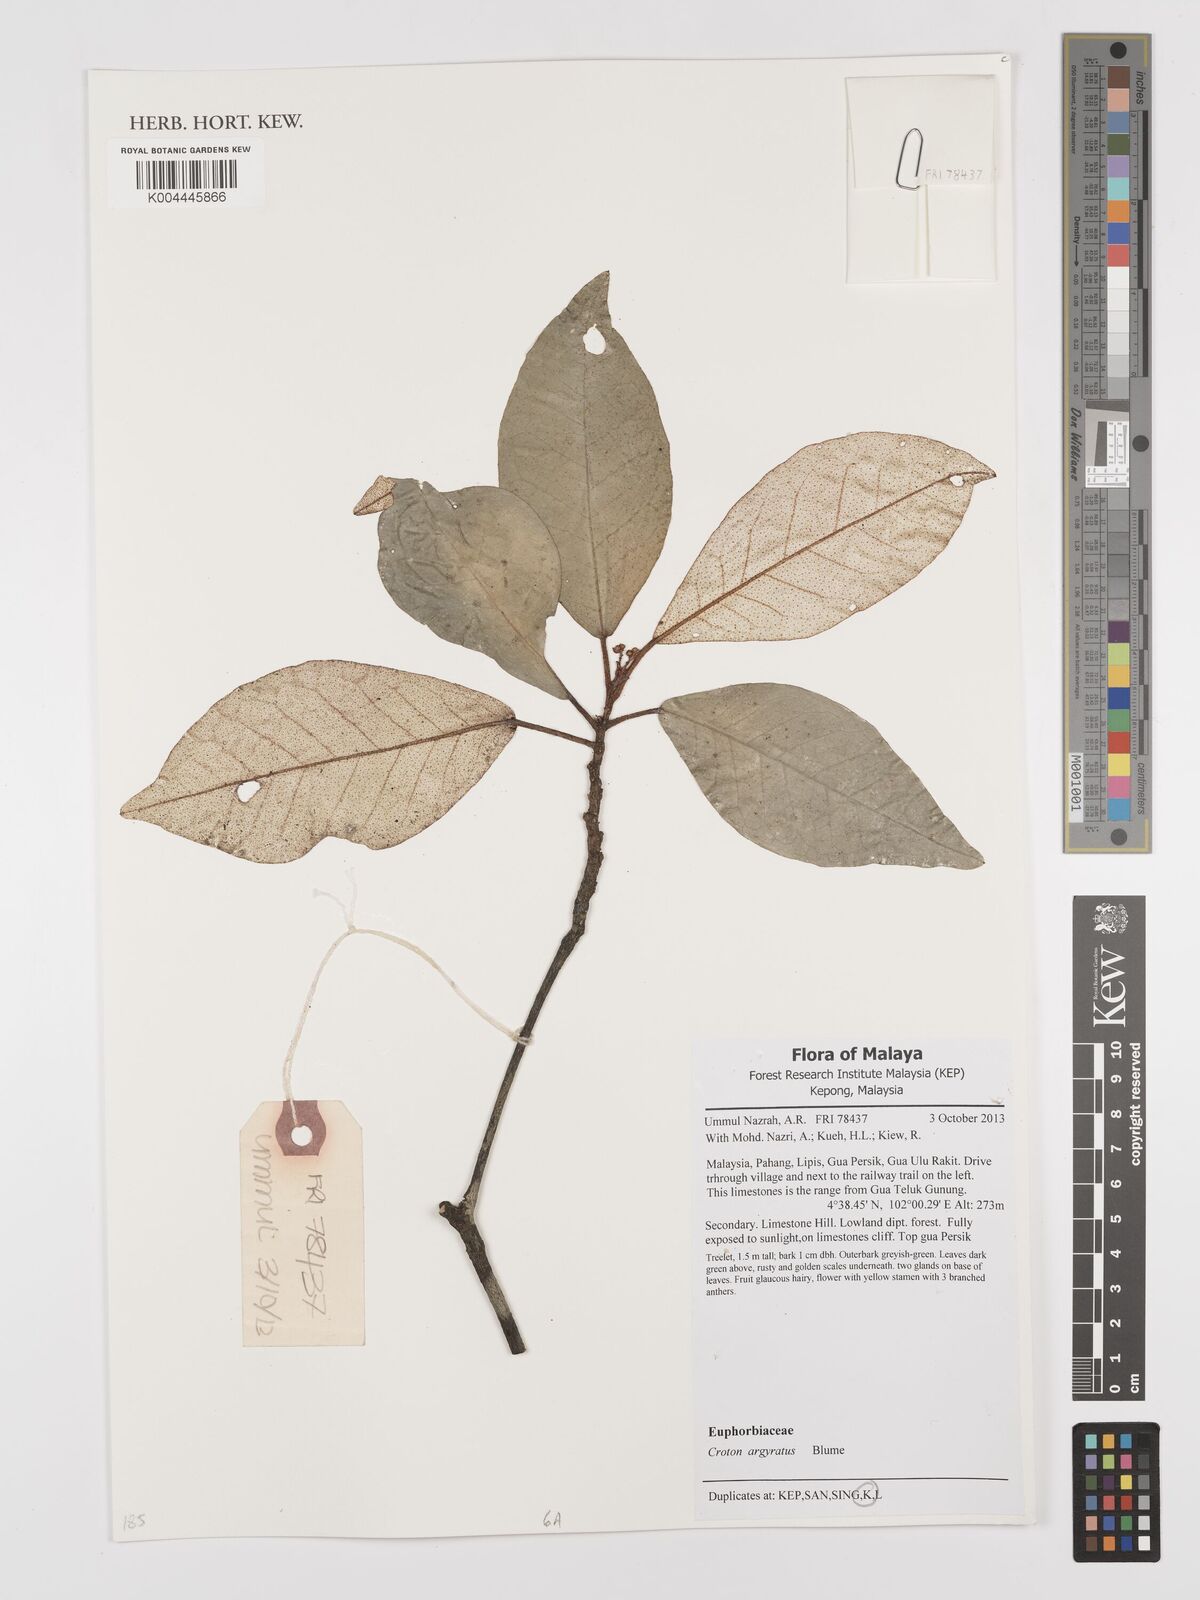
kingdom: Plantae
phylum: Tracheophyta
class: Magnoliopsida
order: Malpighiales
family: Euphorbiaceae
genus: Croton
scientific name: Croton argyratus
